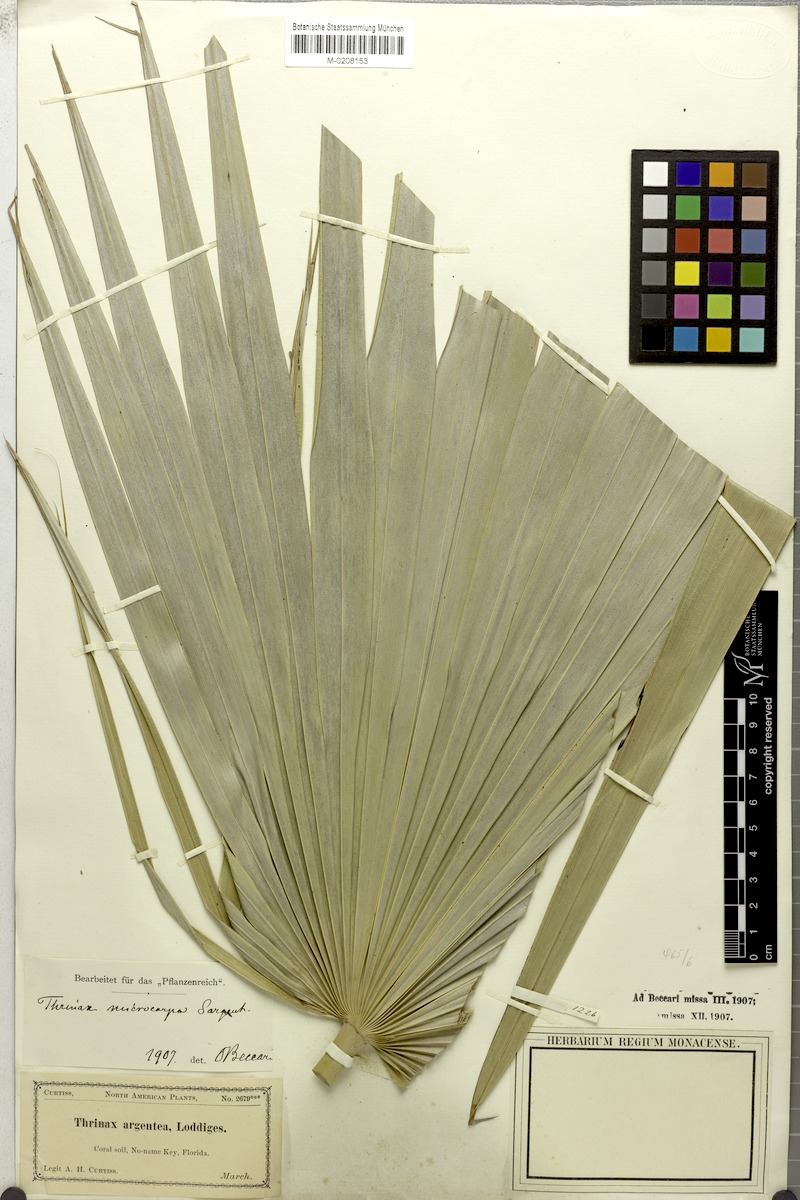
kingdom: Plantae
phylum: Tracheophyta
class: Liliopsida
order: Arecales
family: Arecaceae
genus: Leucothrinax
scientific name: Leucothrinax morrisii
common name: Key palm
